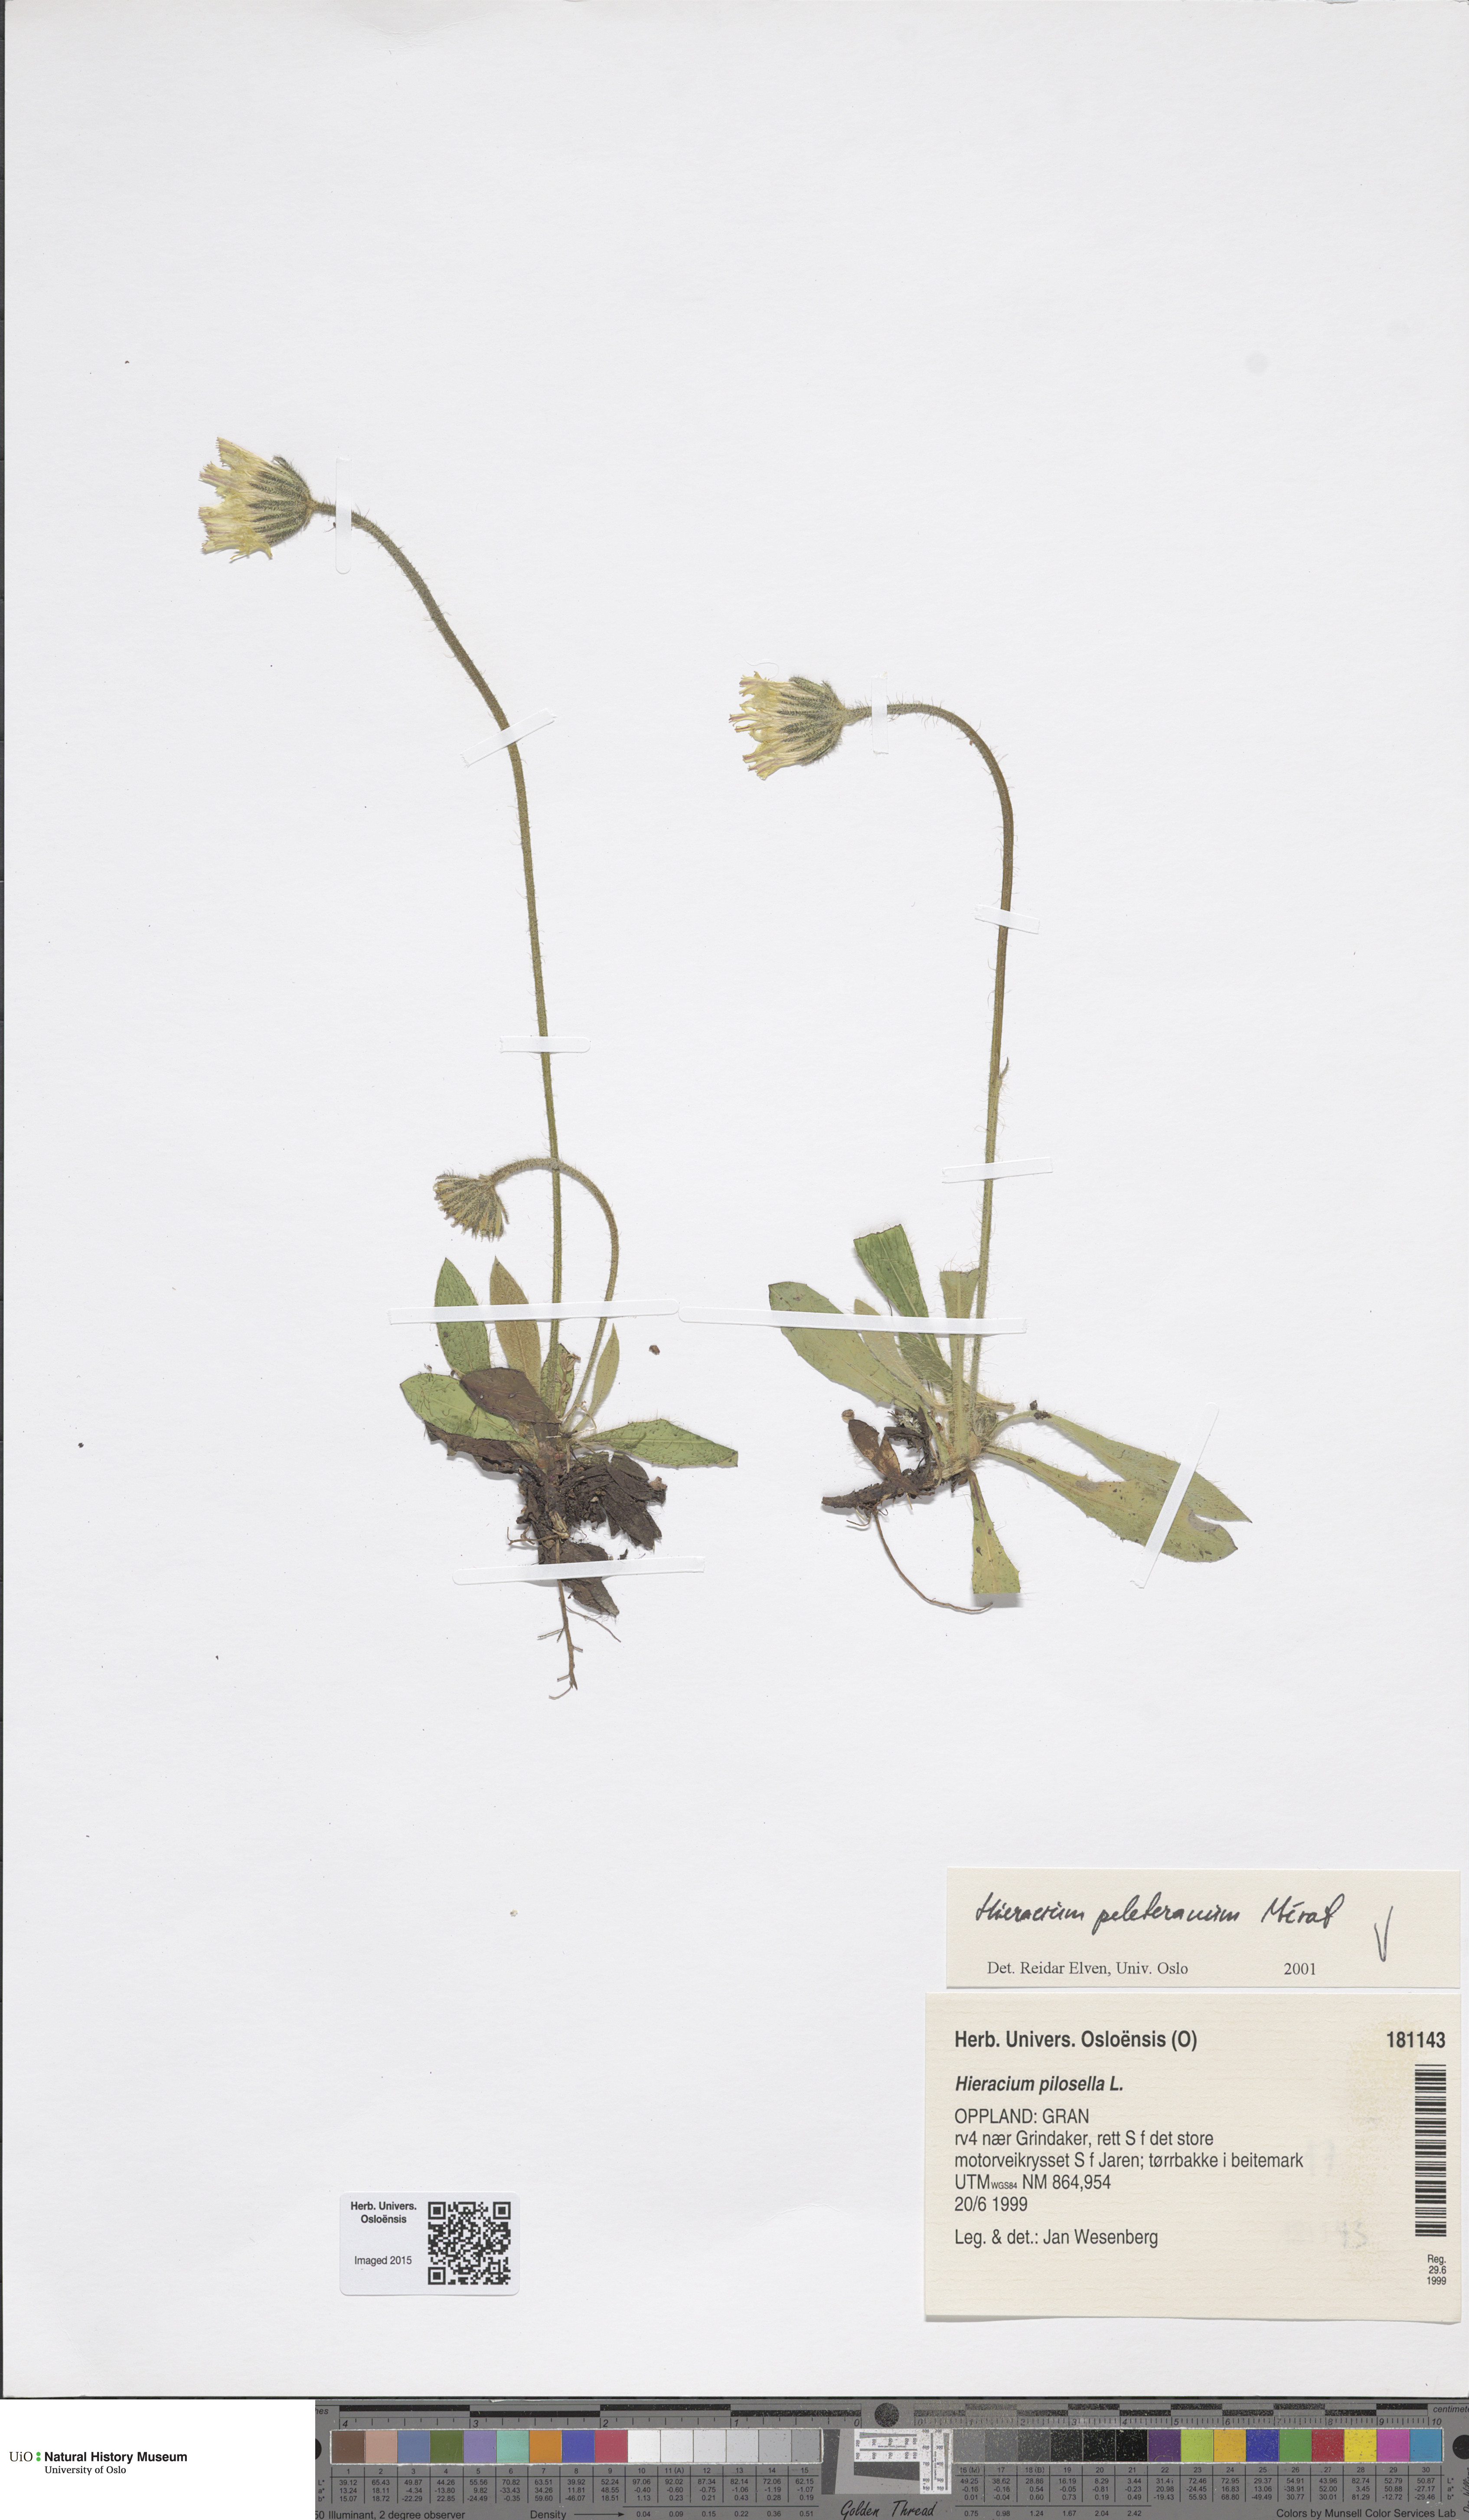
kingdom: Plantae
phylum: Tracheophyta
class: Magnoliopsida
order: Asterales
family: Asteraceae
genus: Pilosella
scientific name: Pilosella officinarum
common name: Mouse-ear hawkweed
